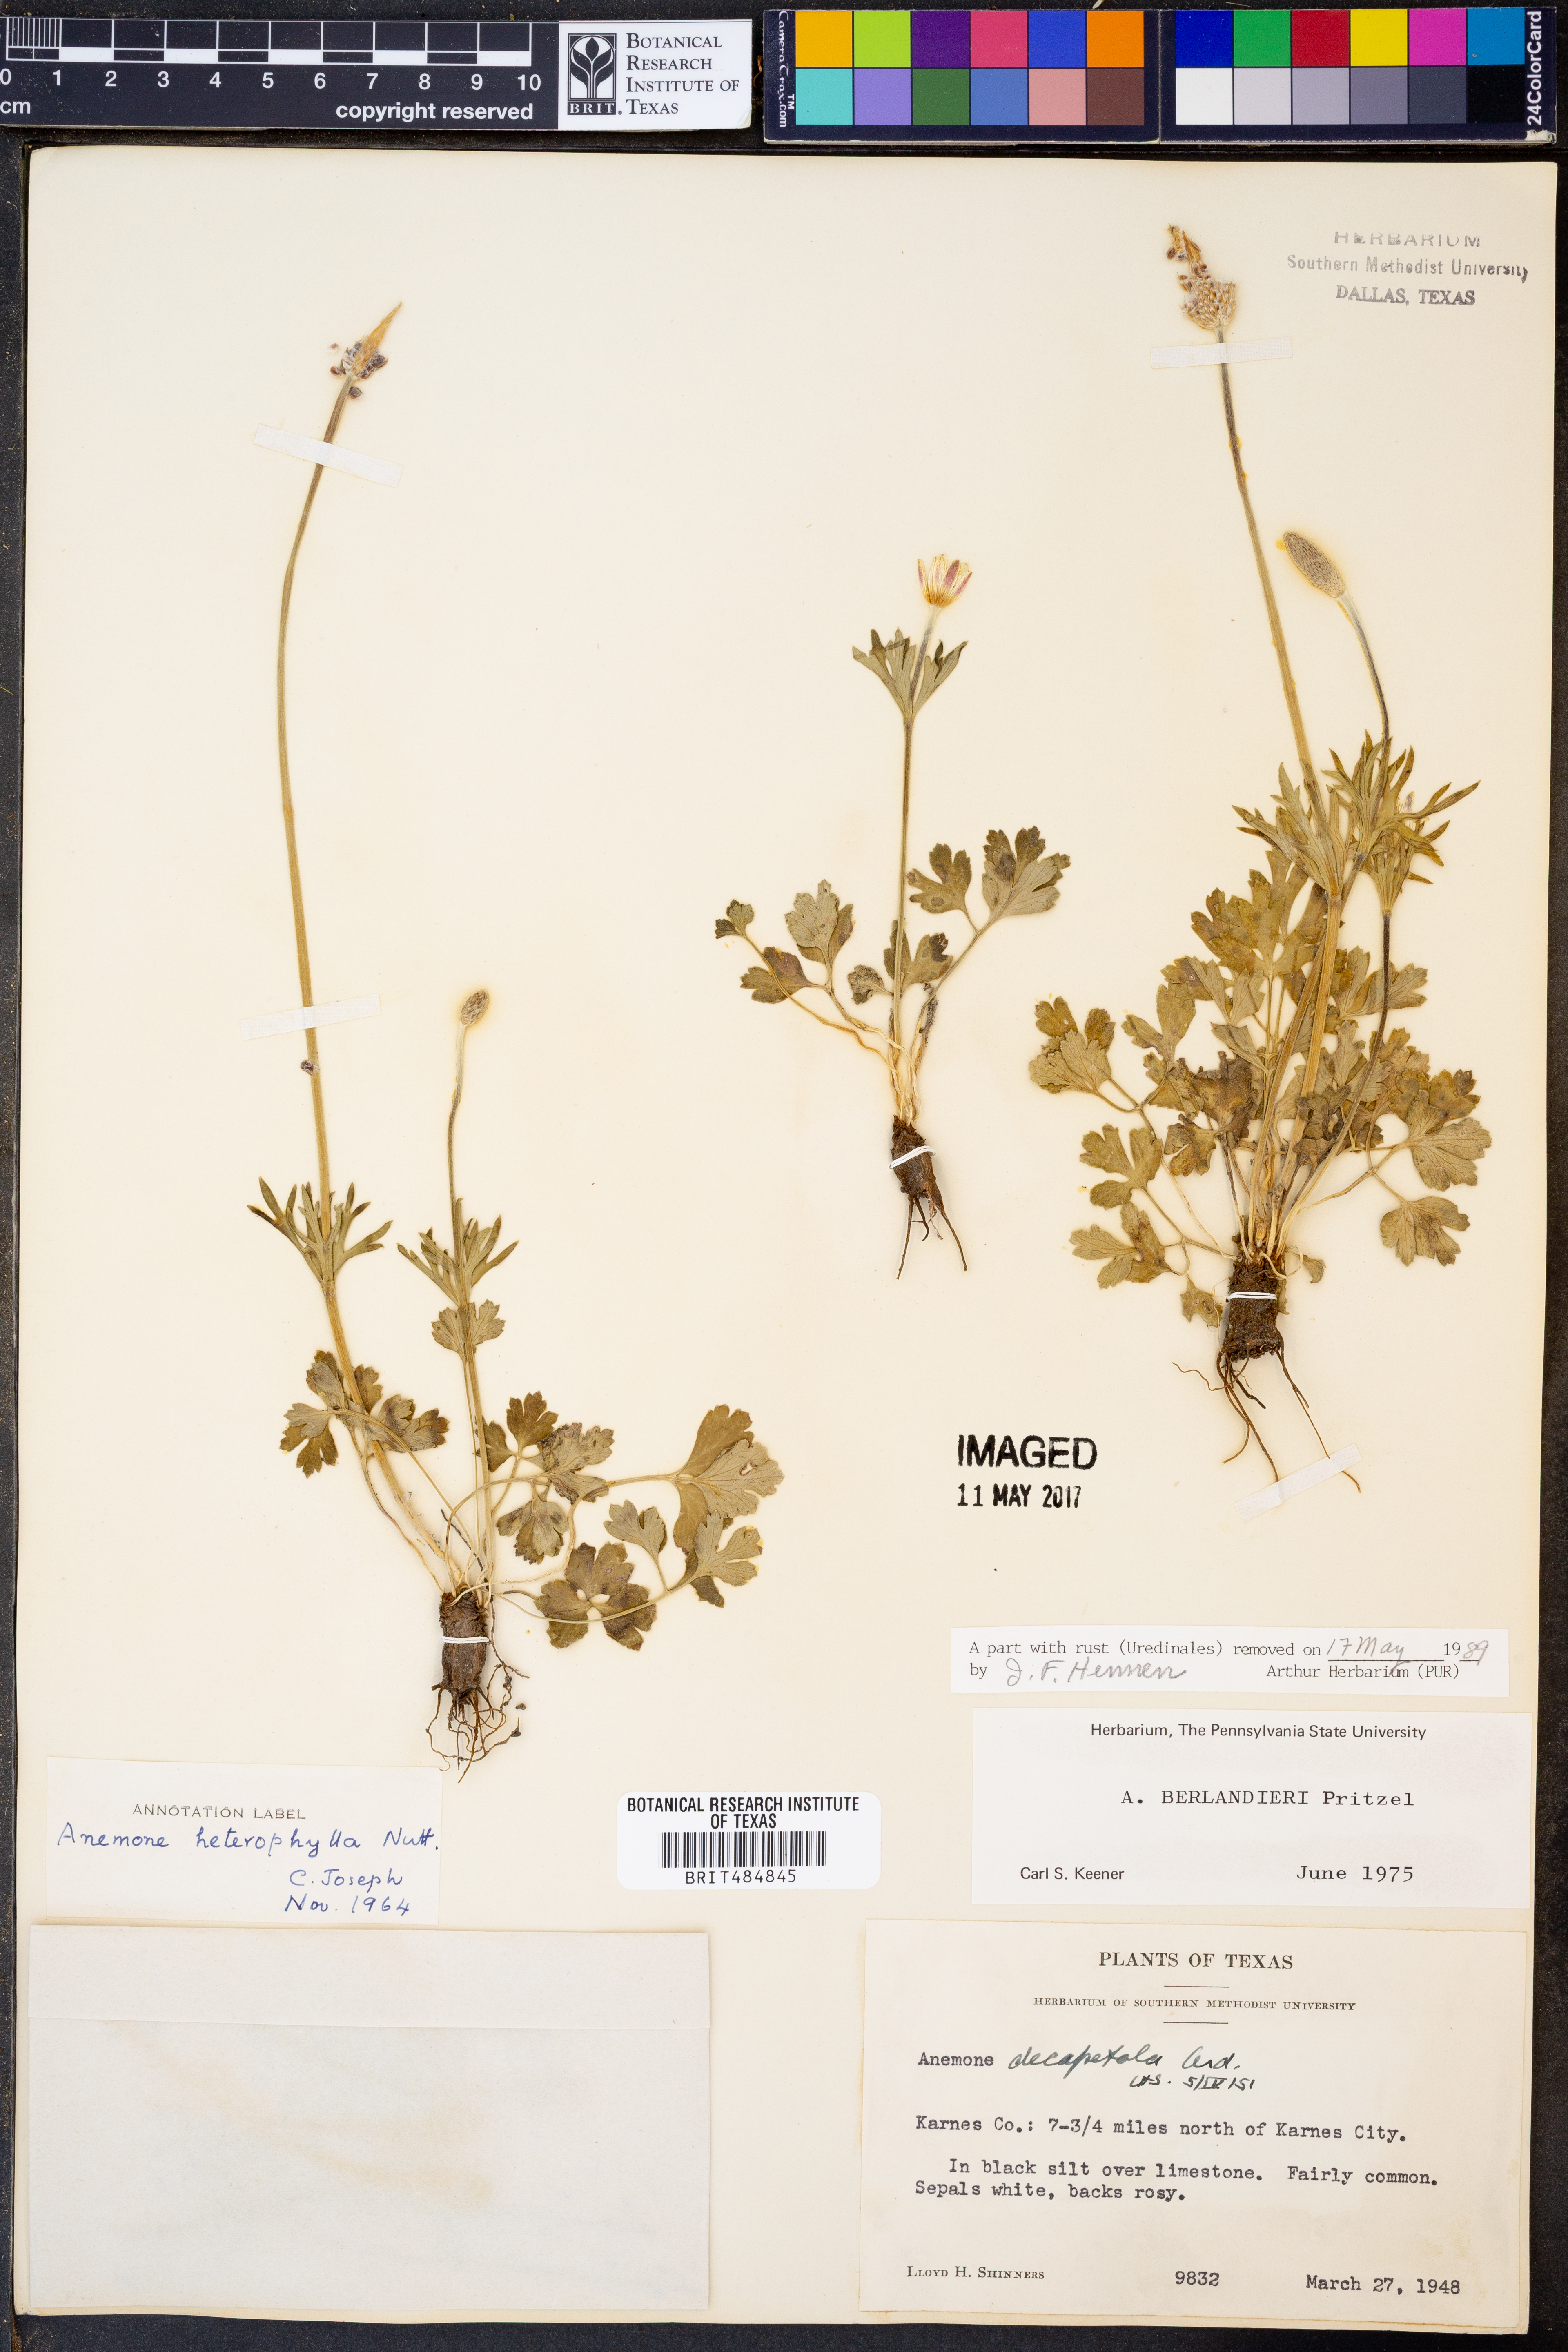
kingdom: Plantae
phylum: Tracheophyta
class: Magnoliopsida
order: Ranunculales
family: Ranunculaceae
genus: Anemone
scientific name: Anemone berlandieri
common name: Ten-petal anemone
